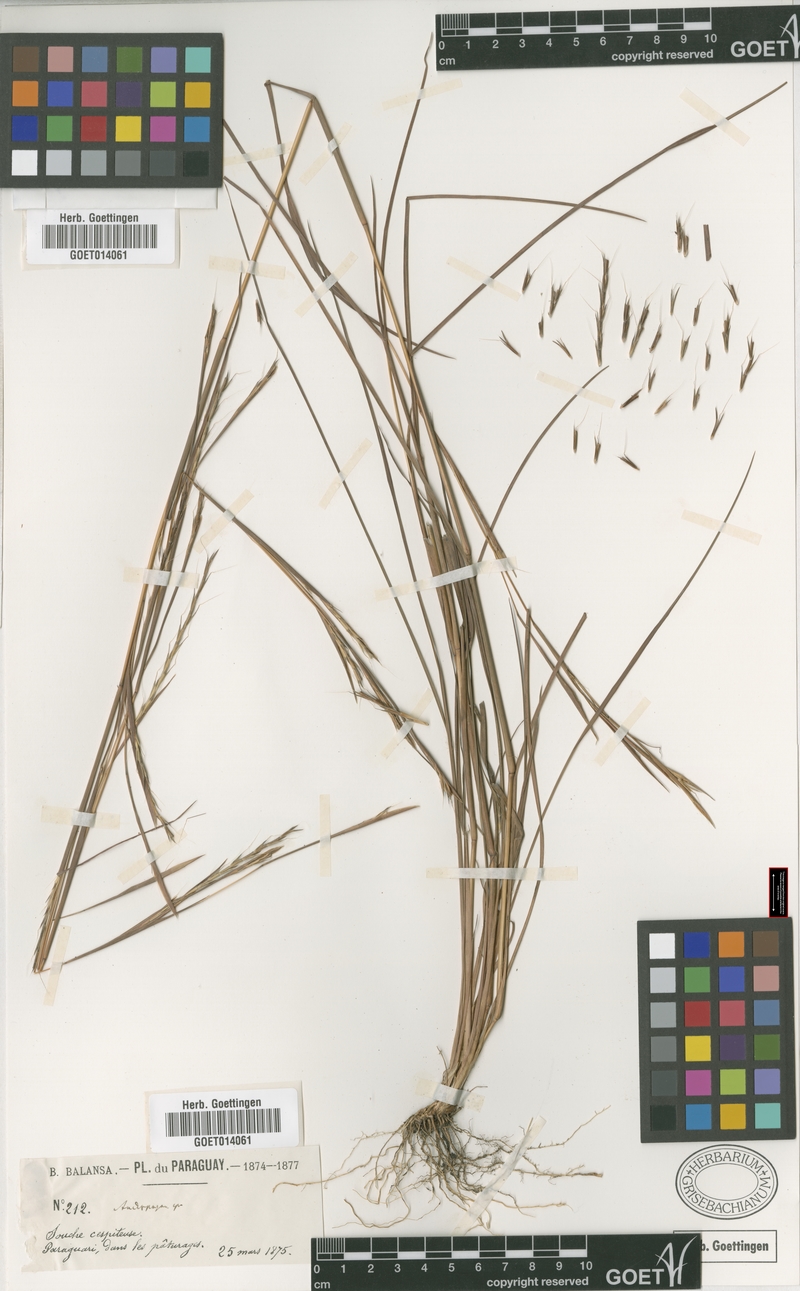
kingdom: Plantae
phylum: Tracheophyta
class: Liliopsida
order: Poales
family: Poaceae
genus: Schizachyrium
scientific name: Schizachyrium sanguineum
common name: Crimson bluestem
